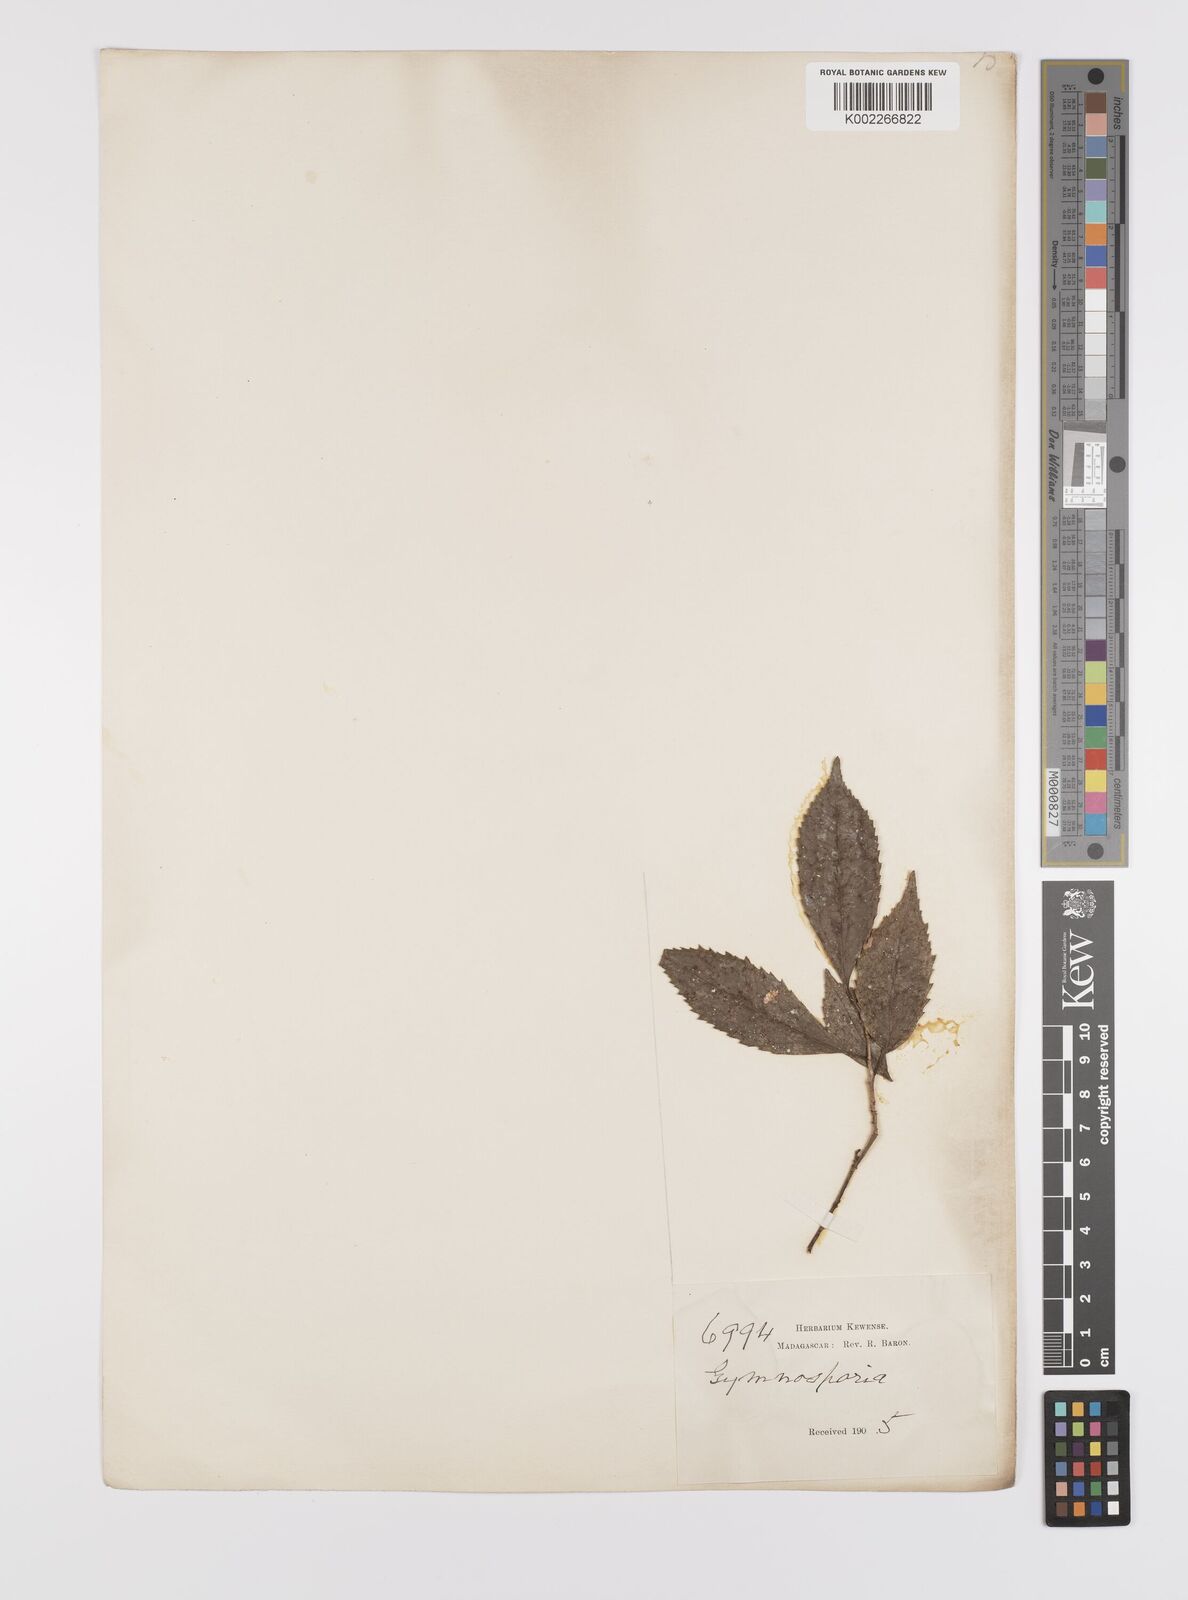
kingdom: Plantae
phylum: Tracheophyta
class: Magnoliopsida
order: Celastrales
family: Celastraceae
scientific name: Celastraceae
